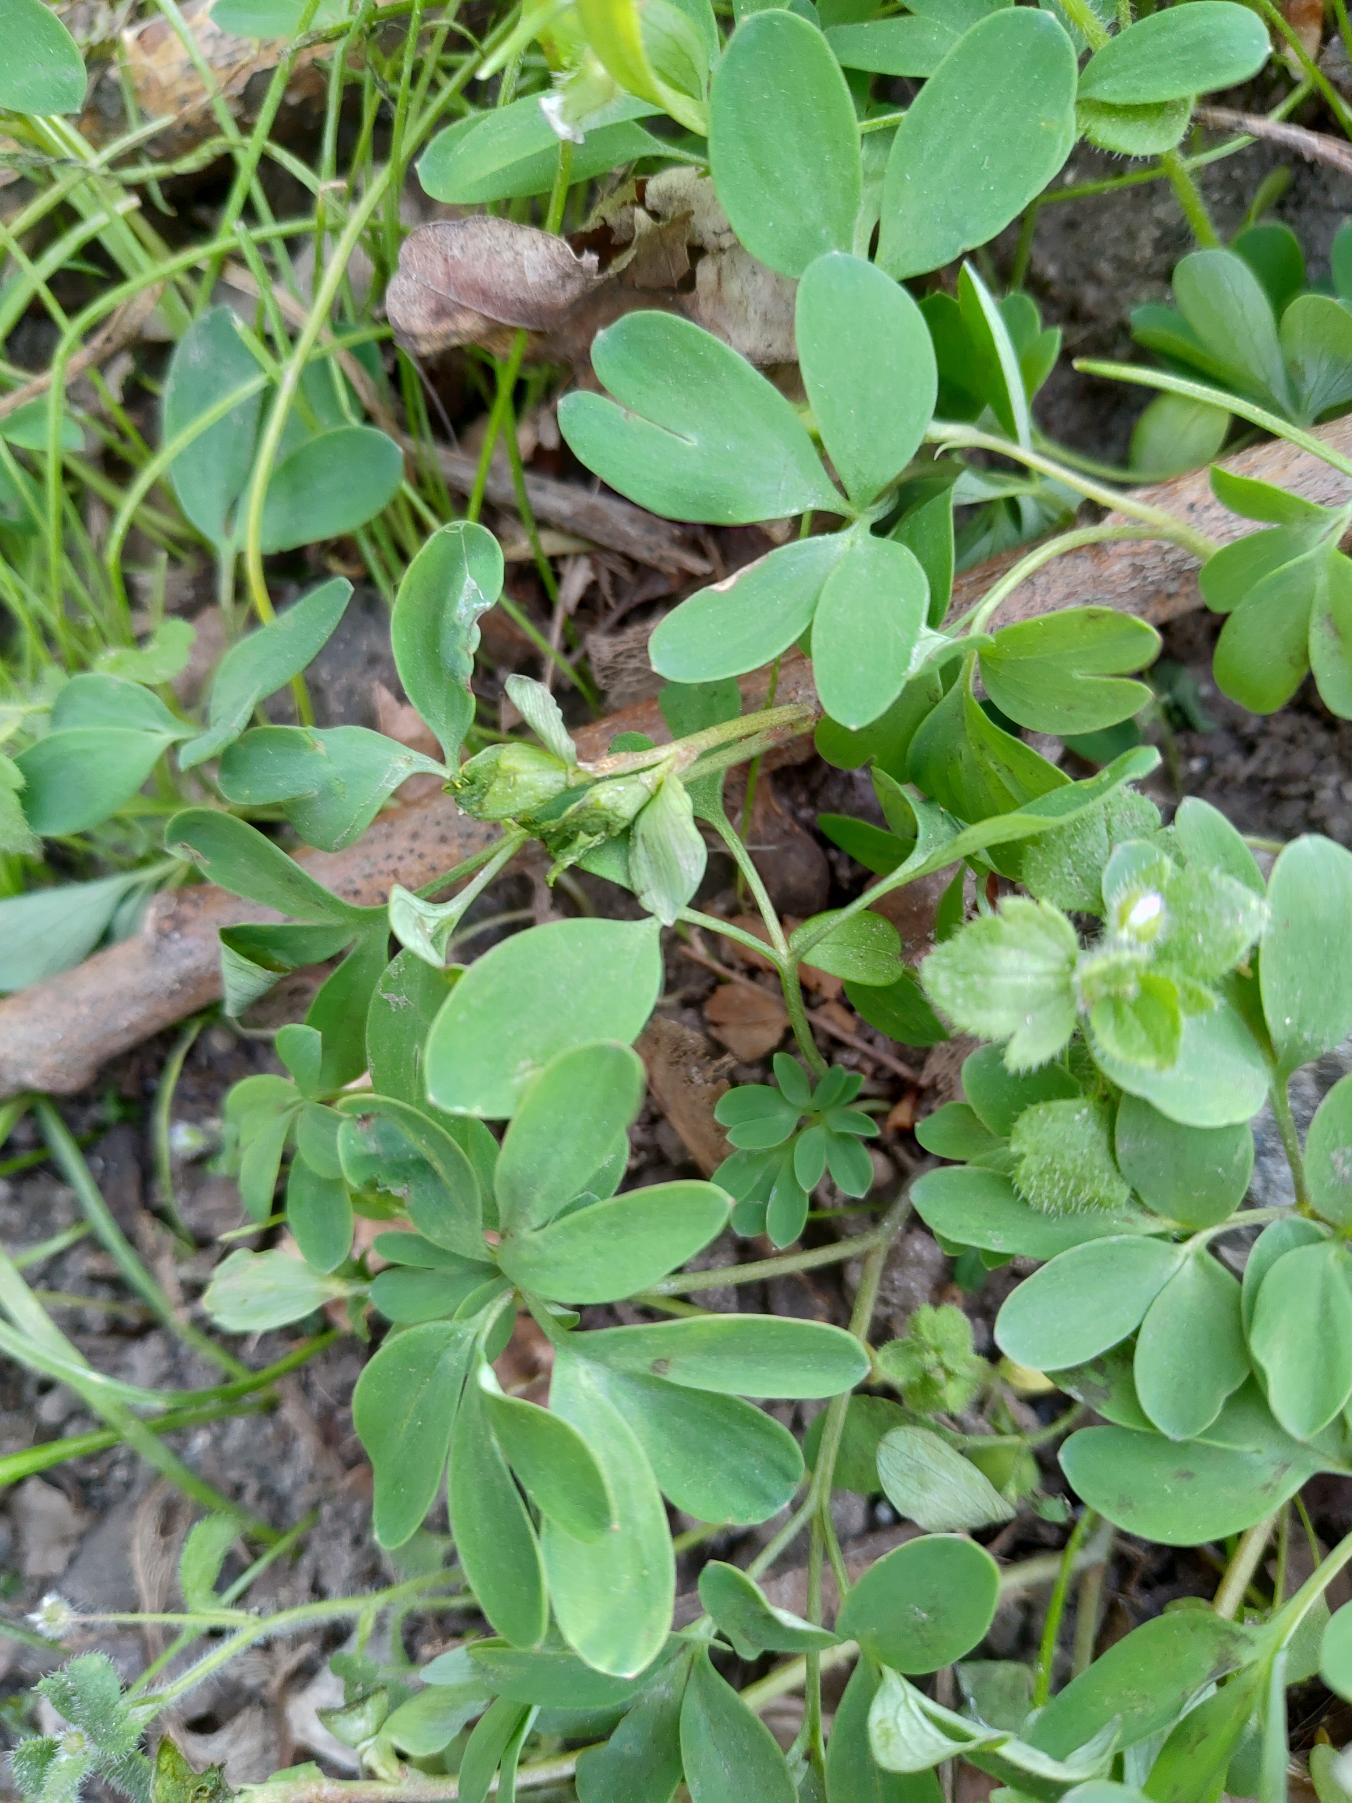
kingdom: Plantae
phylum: Tracheophyta
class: Magnoliopsida
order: Ranunculales
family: Papaveraceae
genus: Corydalis
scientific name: Corydalis intermedia
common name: Liden lærkespore
